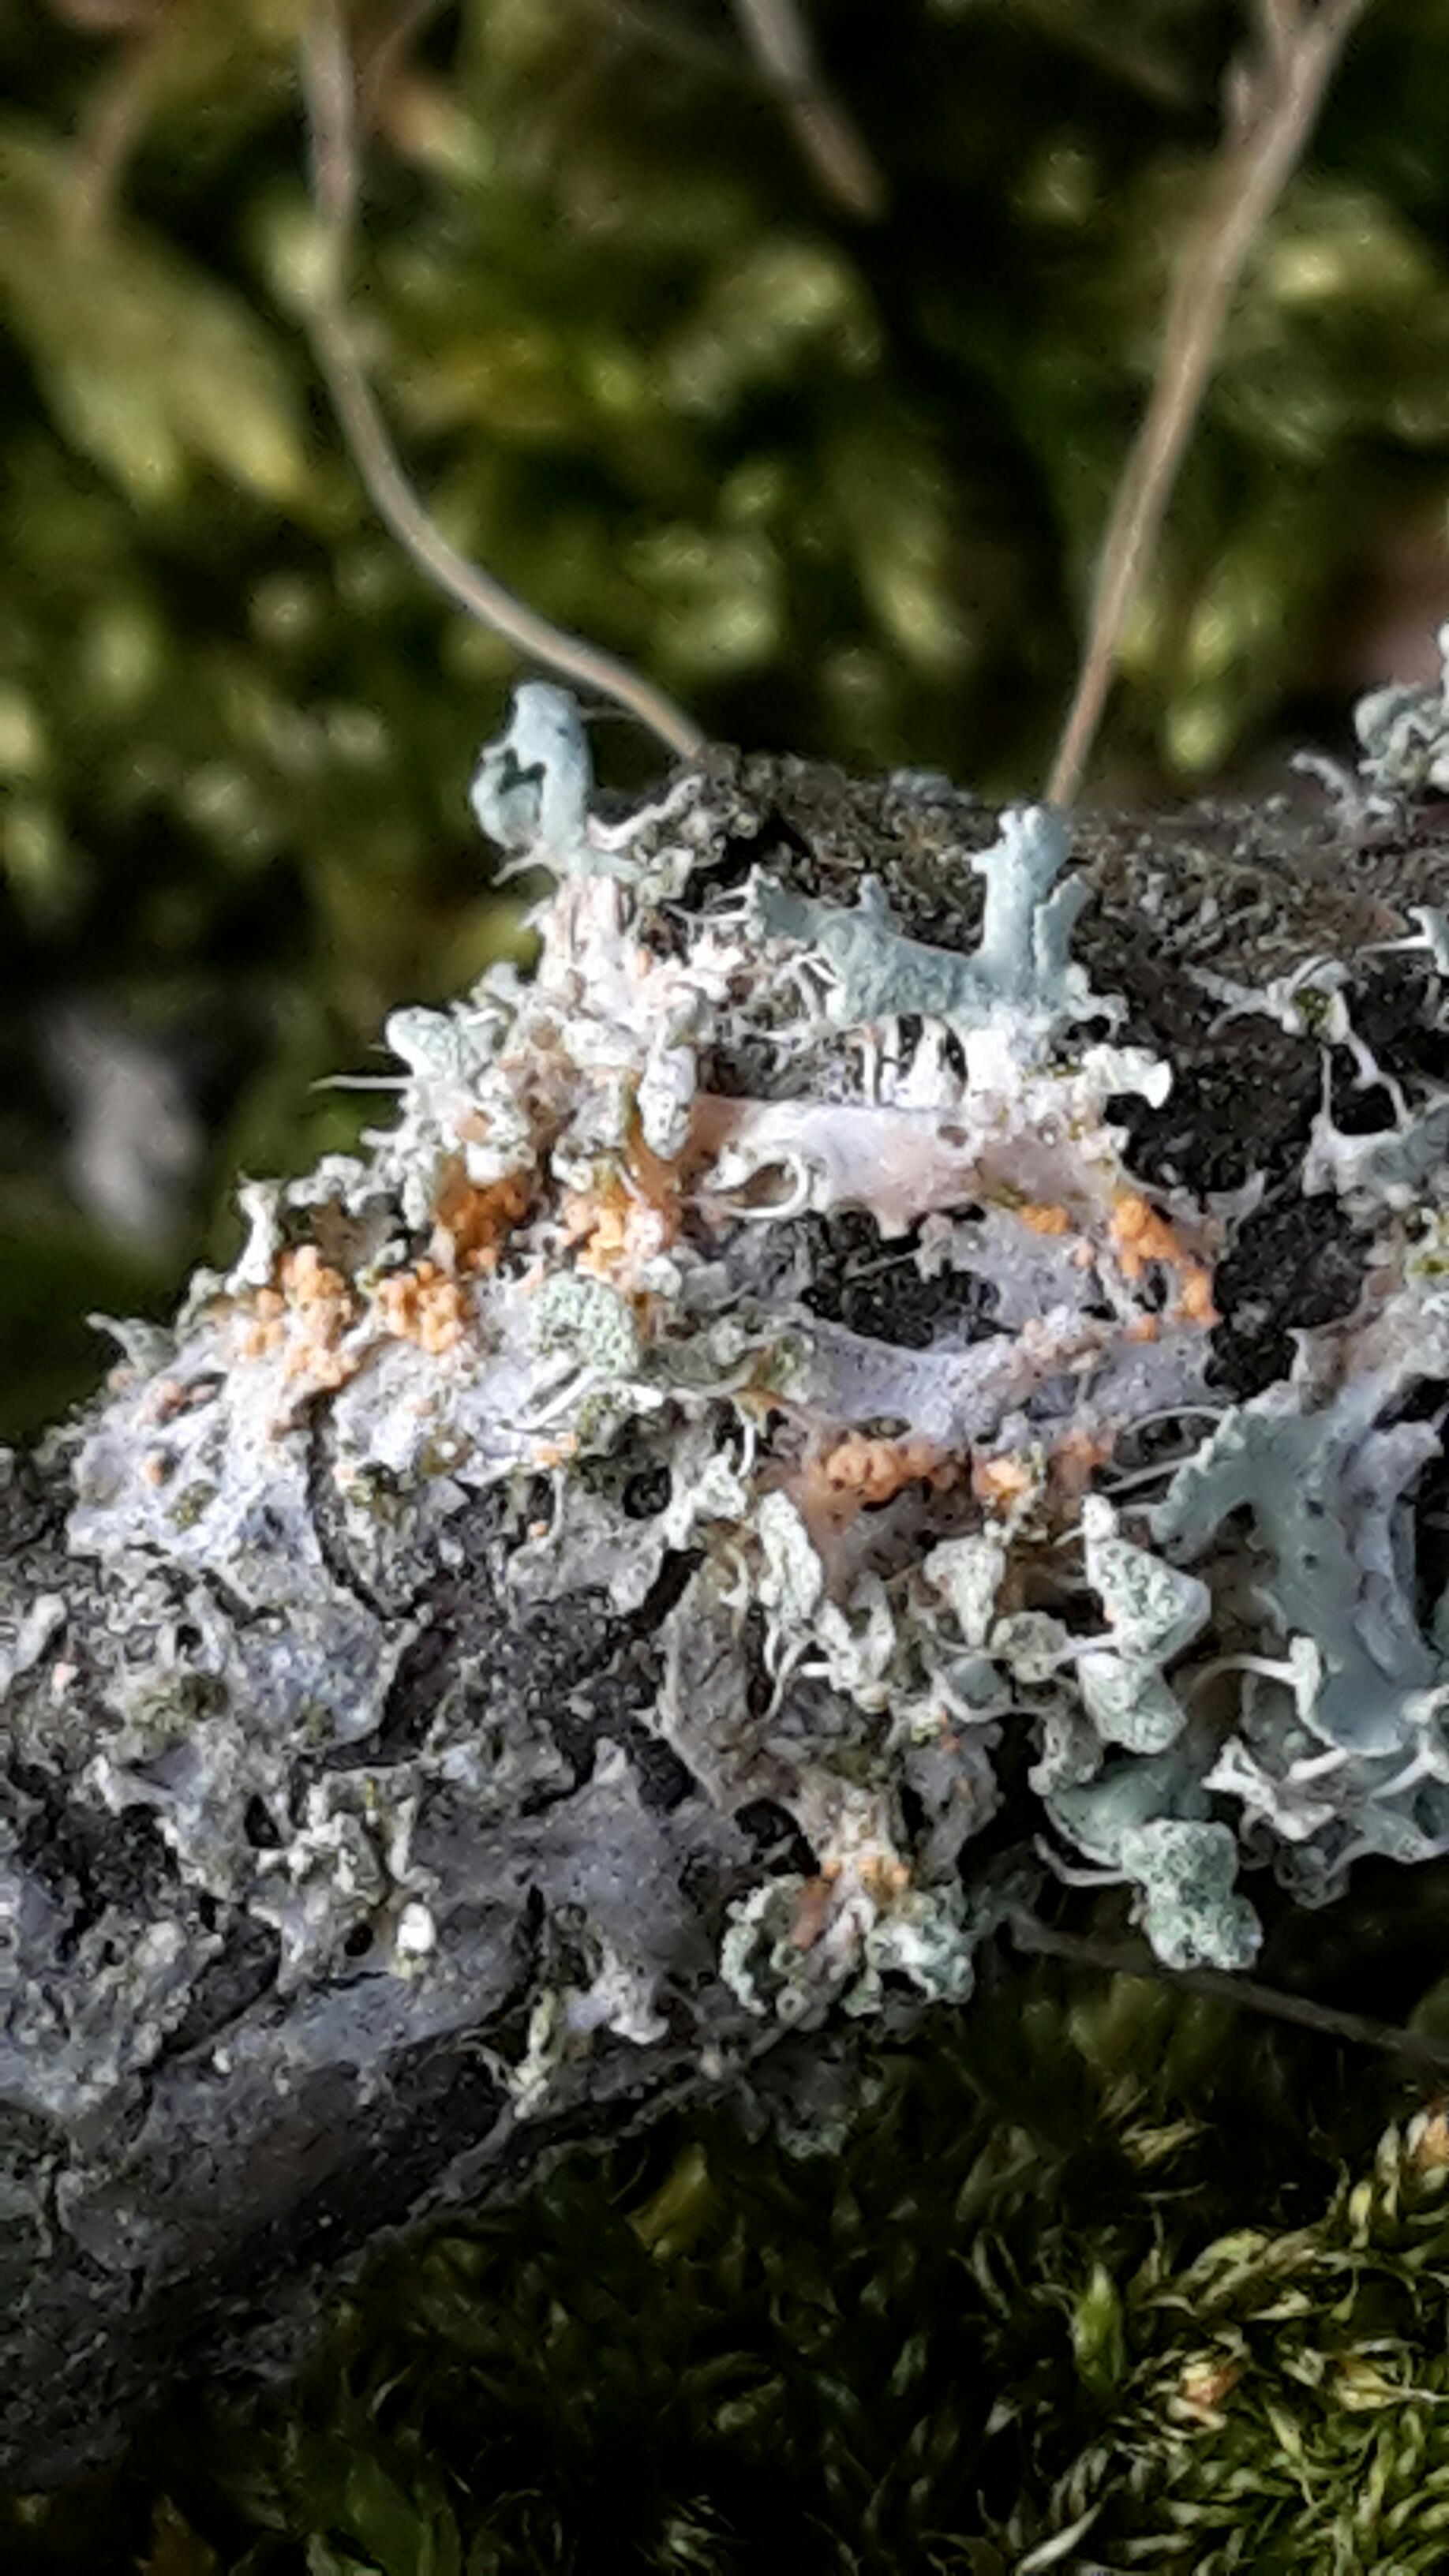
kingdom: Fungi
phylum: Basidiomycota
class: Agaricomycetes
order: Corticiales
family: Corticiaceae
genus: Erythricium
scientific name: Erythricium aurantiacum
